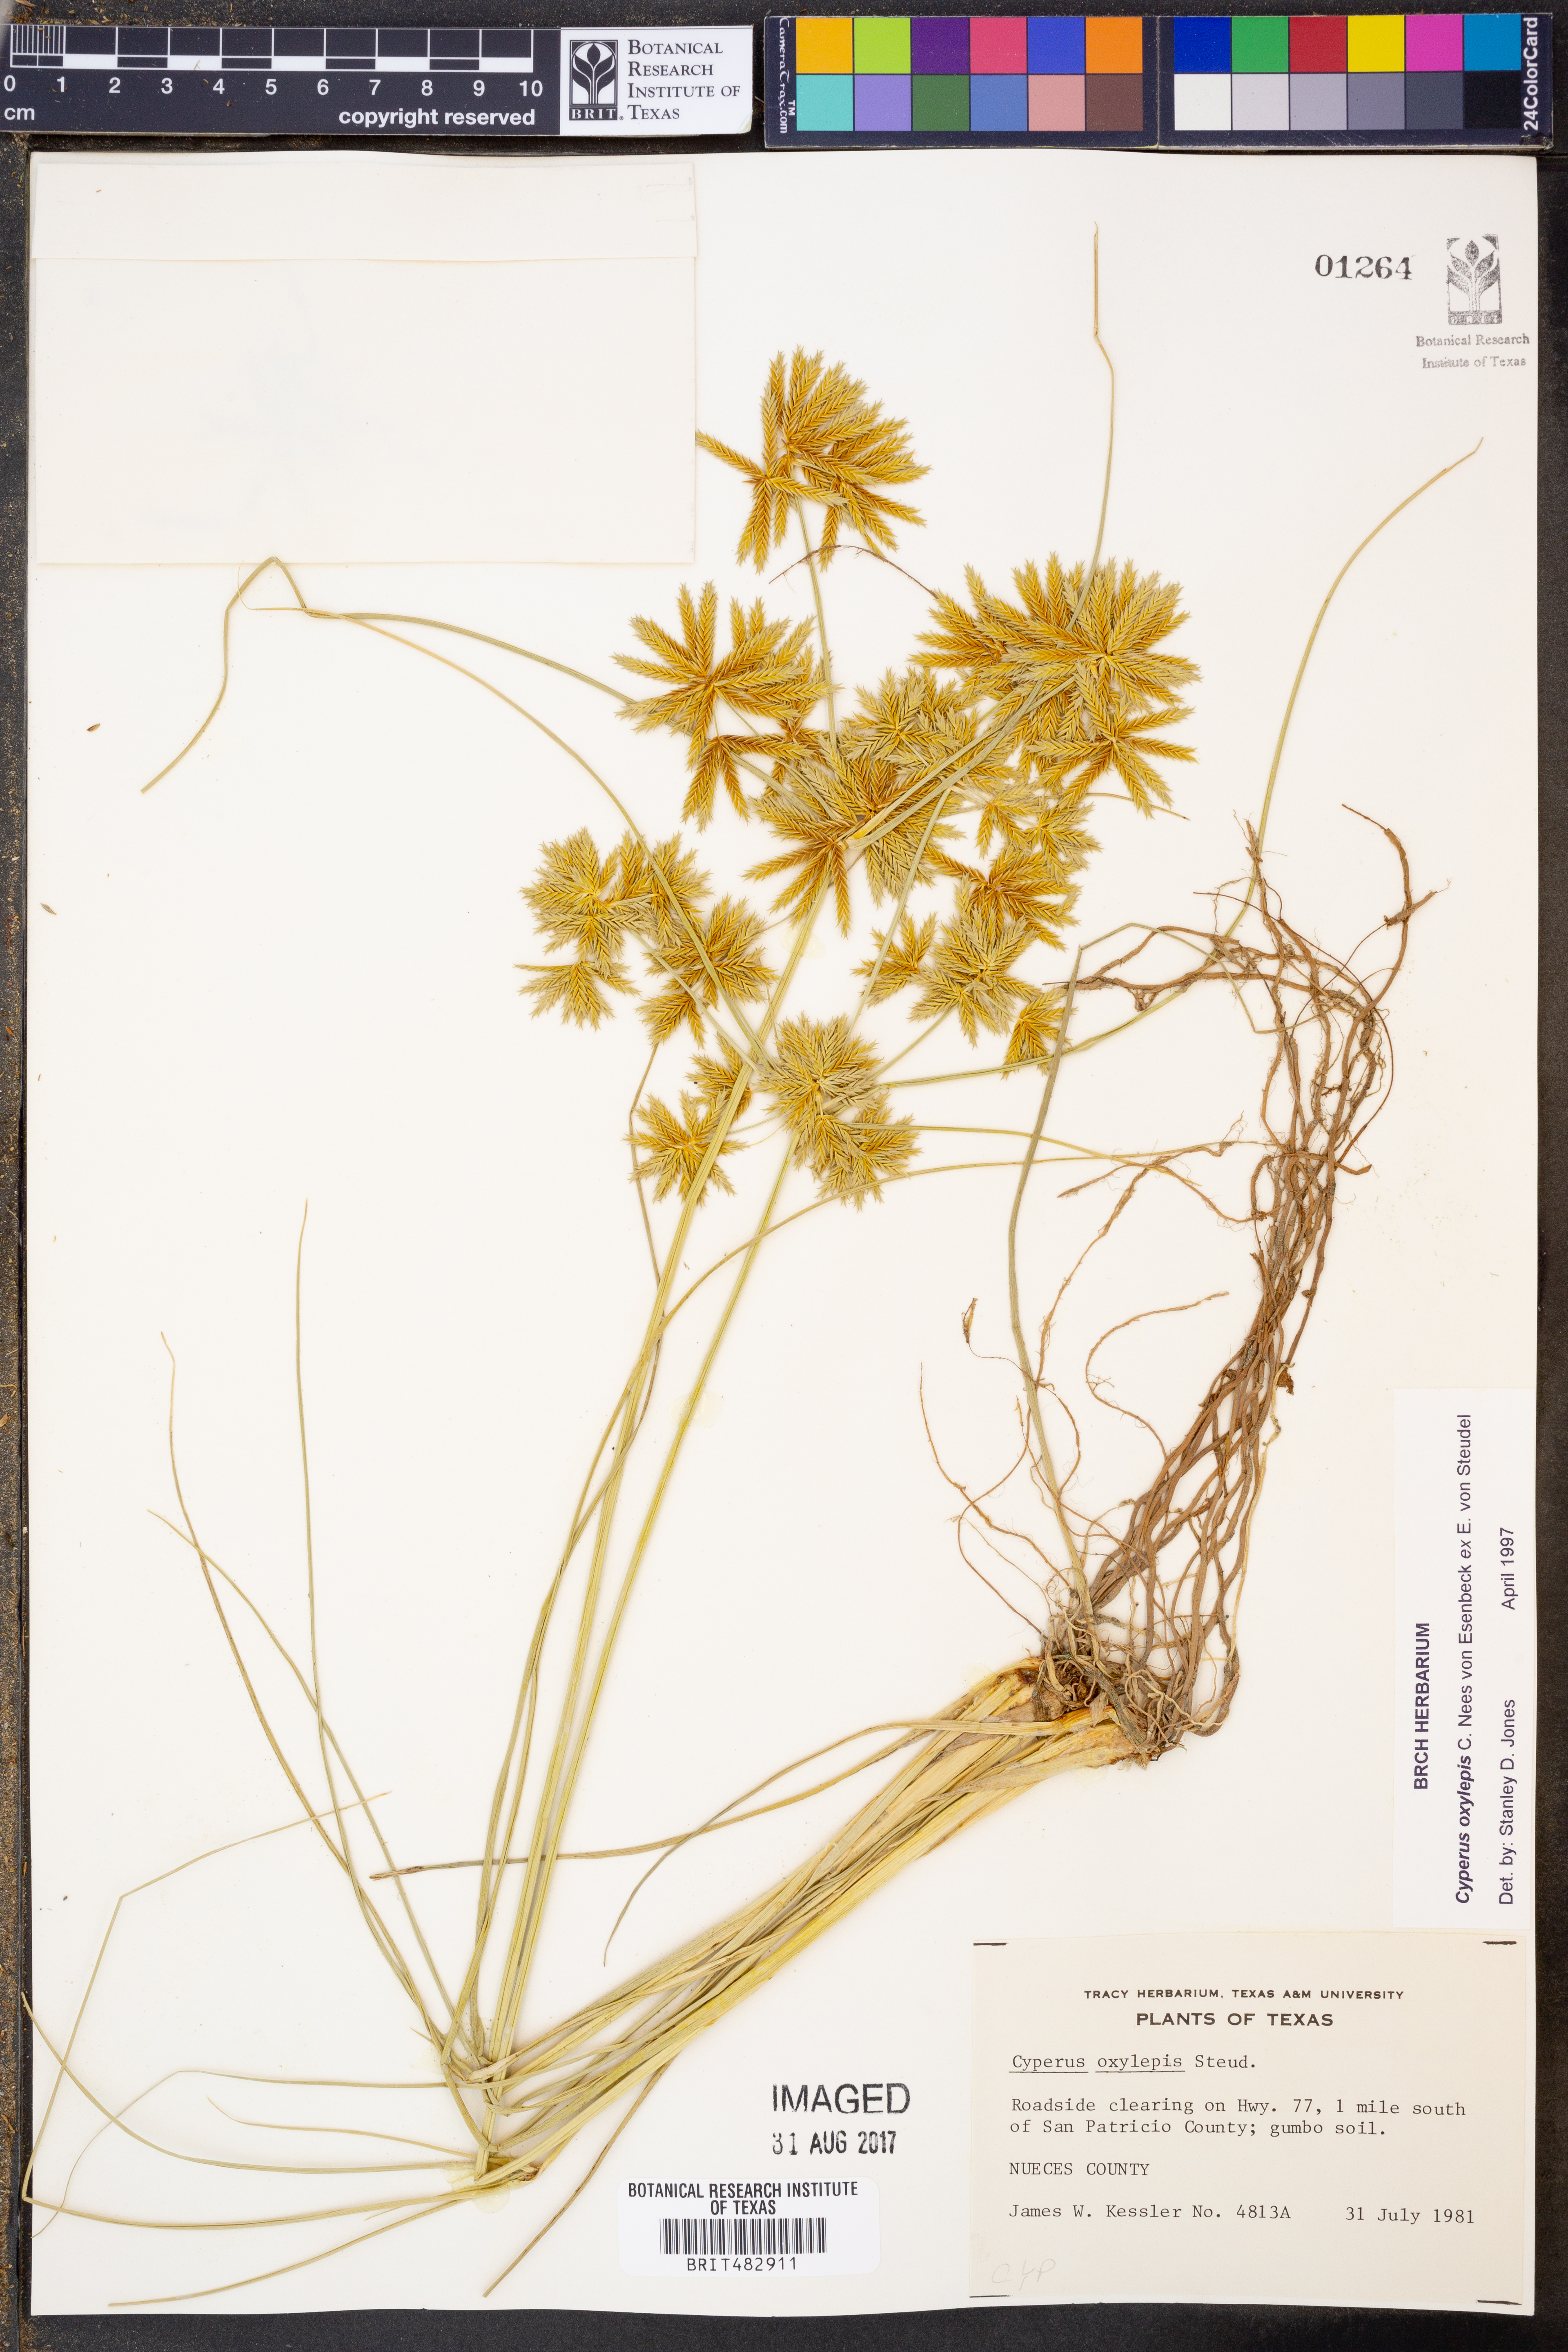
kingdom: Plantae
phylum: Tracheophyta
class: Liliopsida
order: Poales
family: Cyperaceae
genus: Cyperus
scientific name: Cyperus oxylepis
